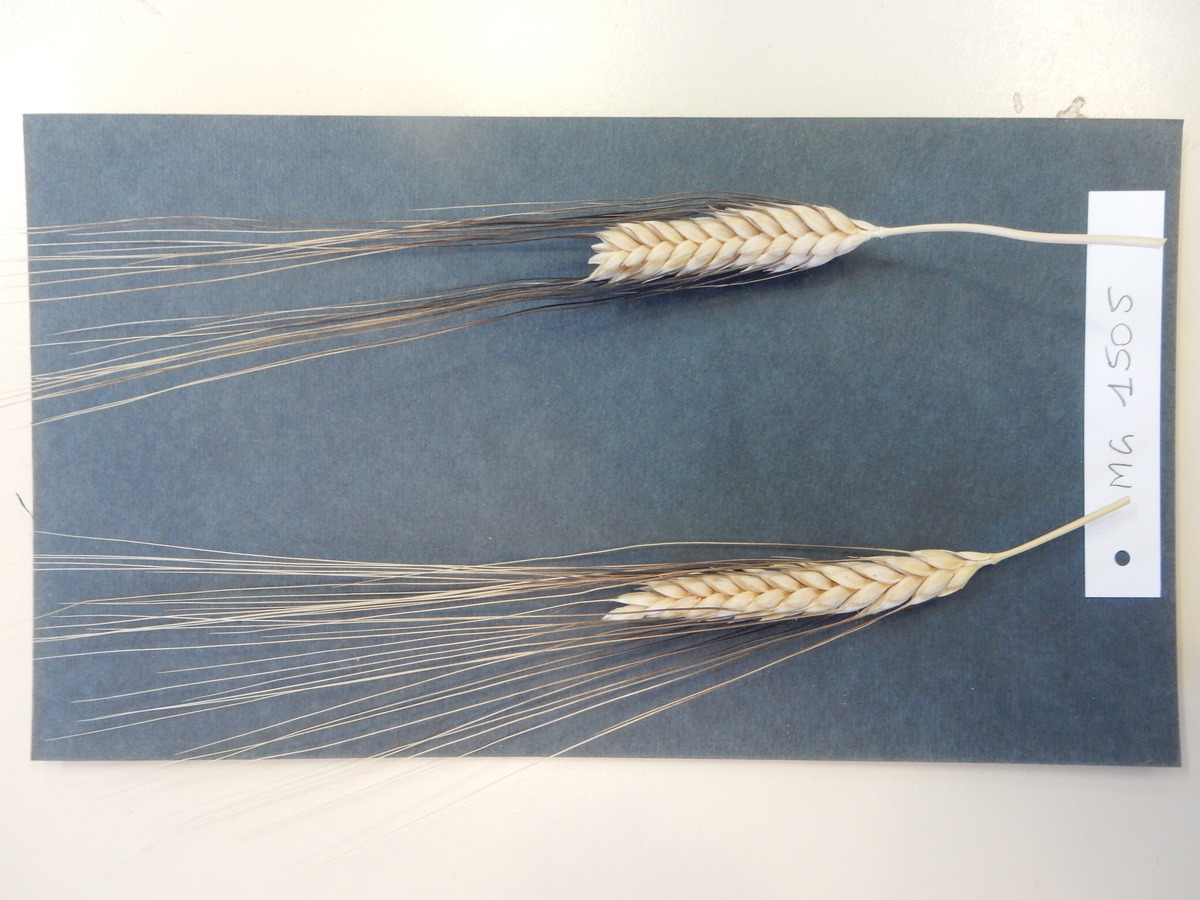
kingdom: Plantae
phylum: Tracheophyta
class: Liliopsida
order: Poales
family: Poaceae
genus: Triticum
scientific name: Triticum turgidum
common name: Wheat
